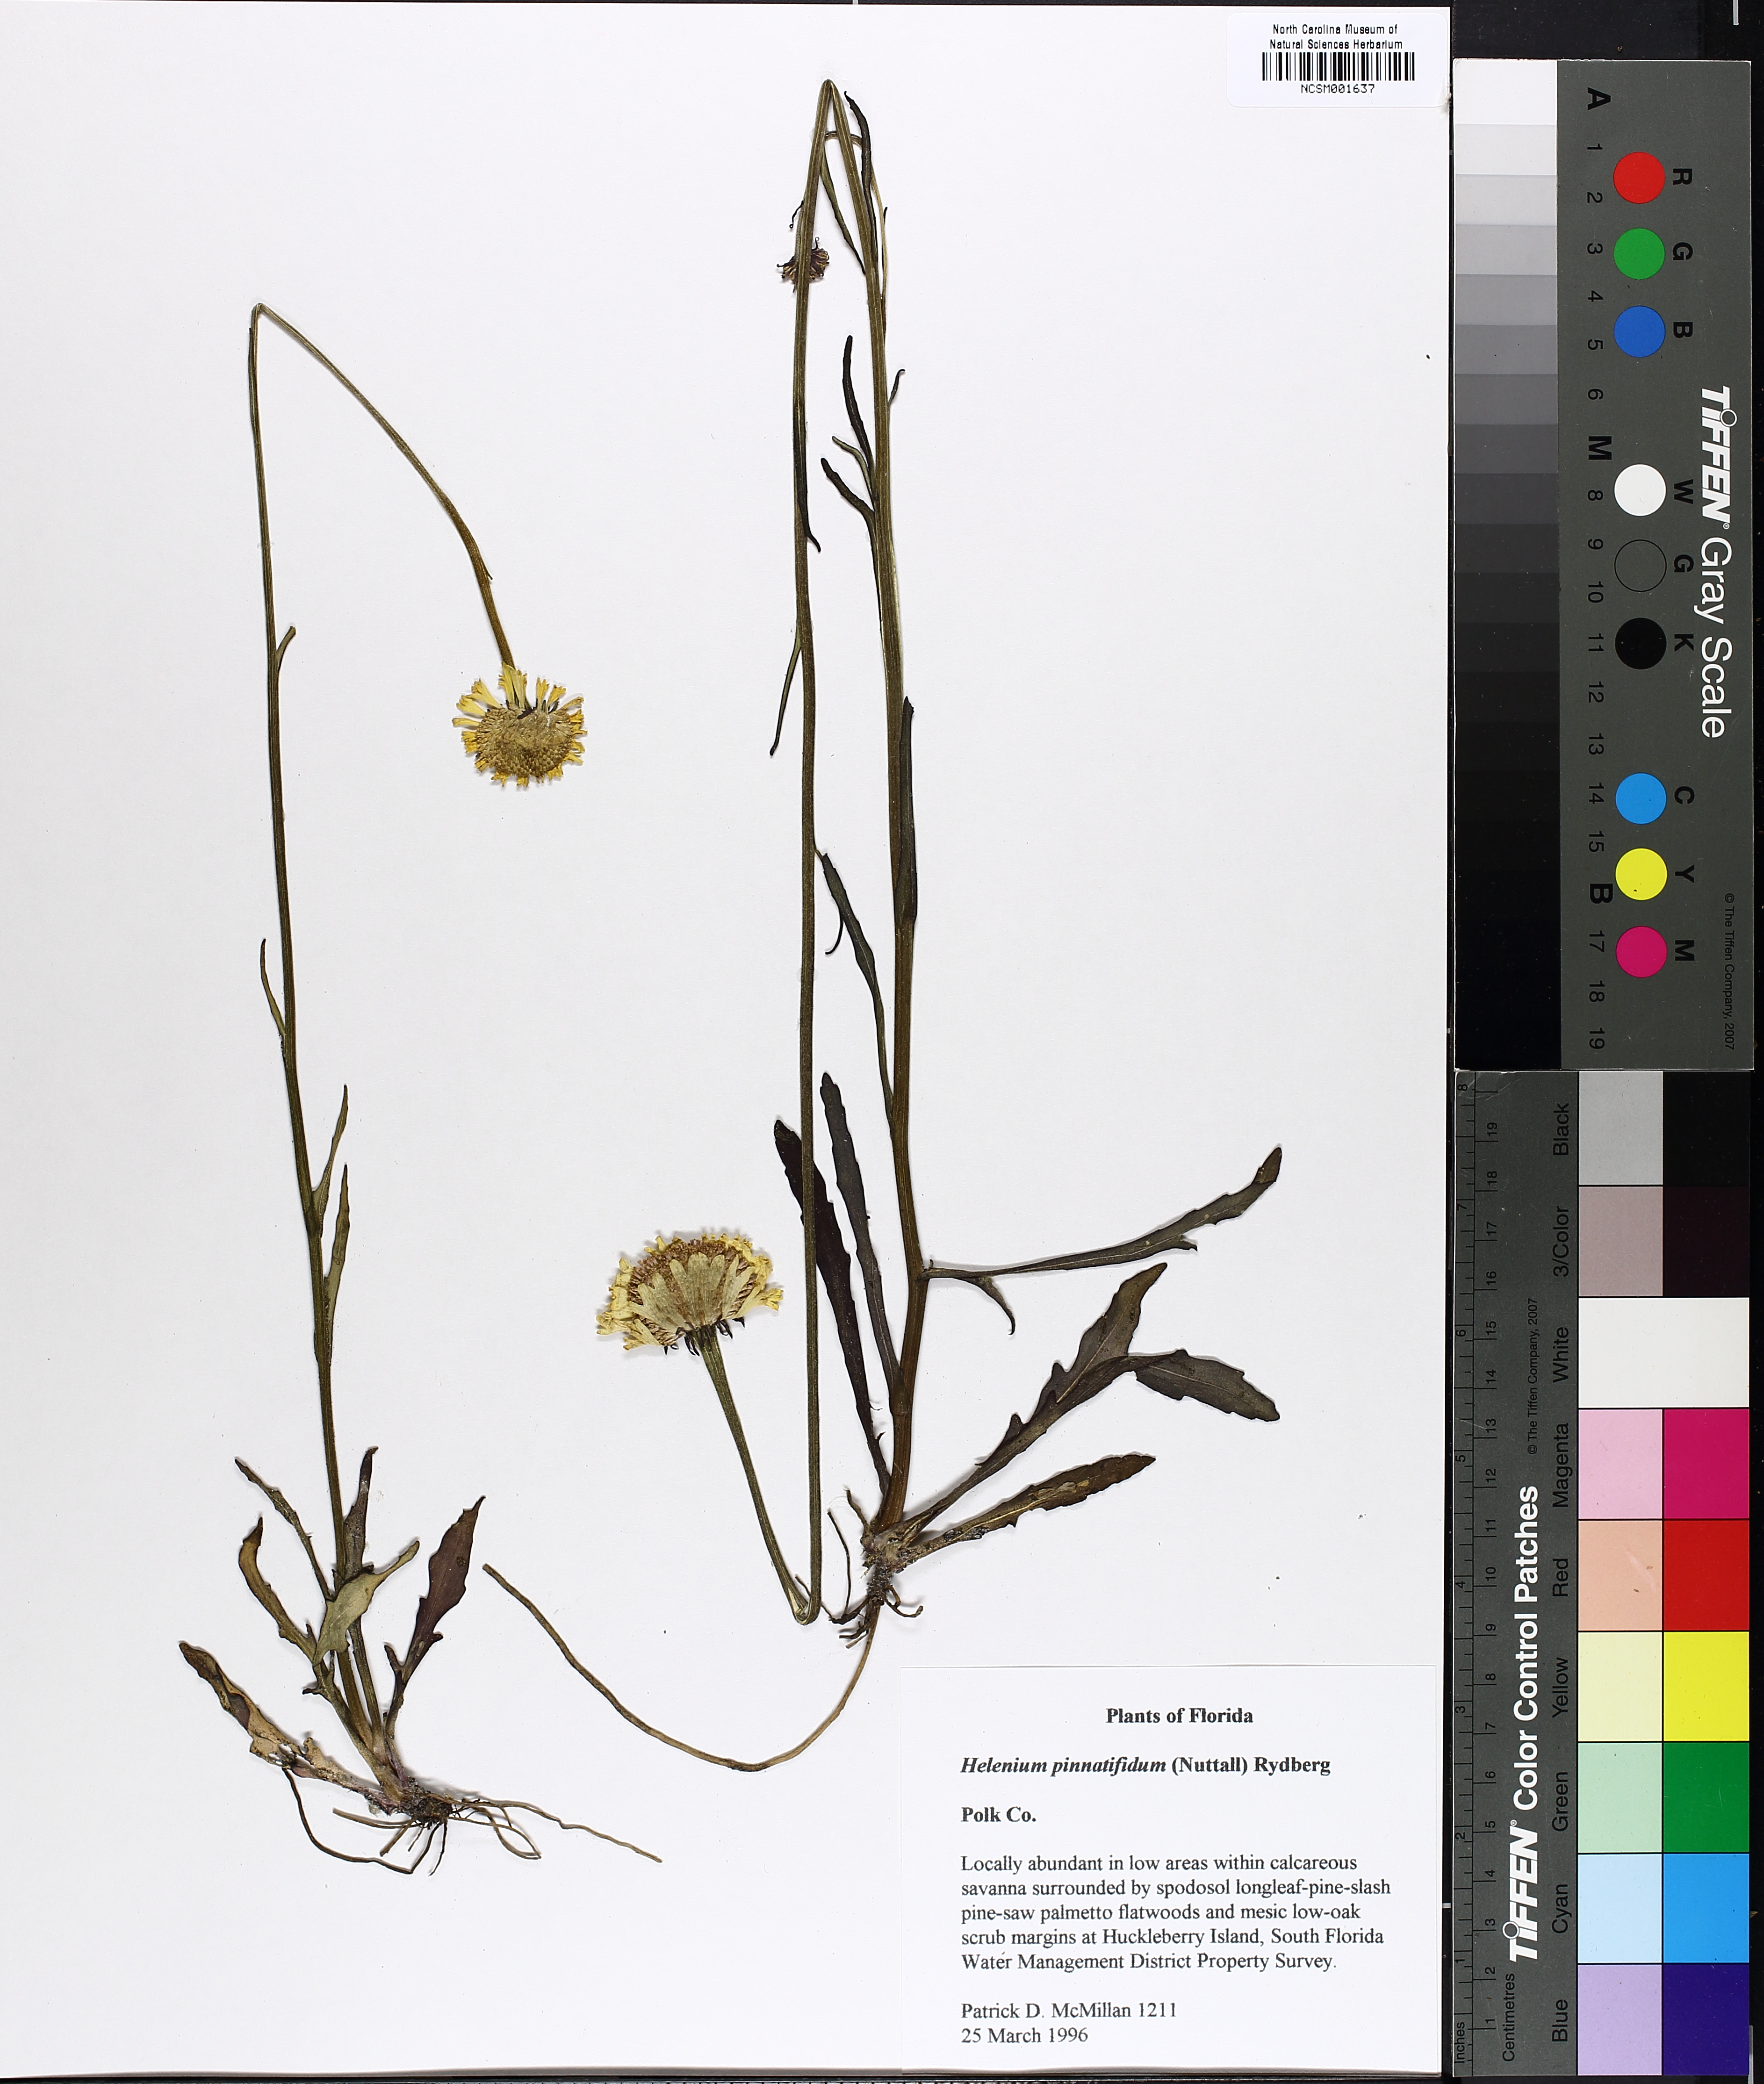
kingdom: Plantae
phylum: Tracheophyta
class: Magnoliopsida
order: Asterales
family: Asteraceae
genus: Helenium
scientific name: Helenium pinnatifidum
